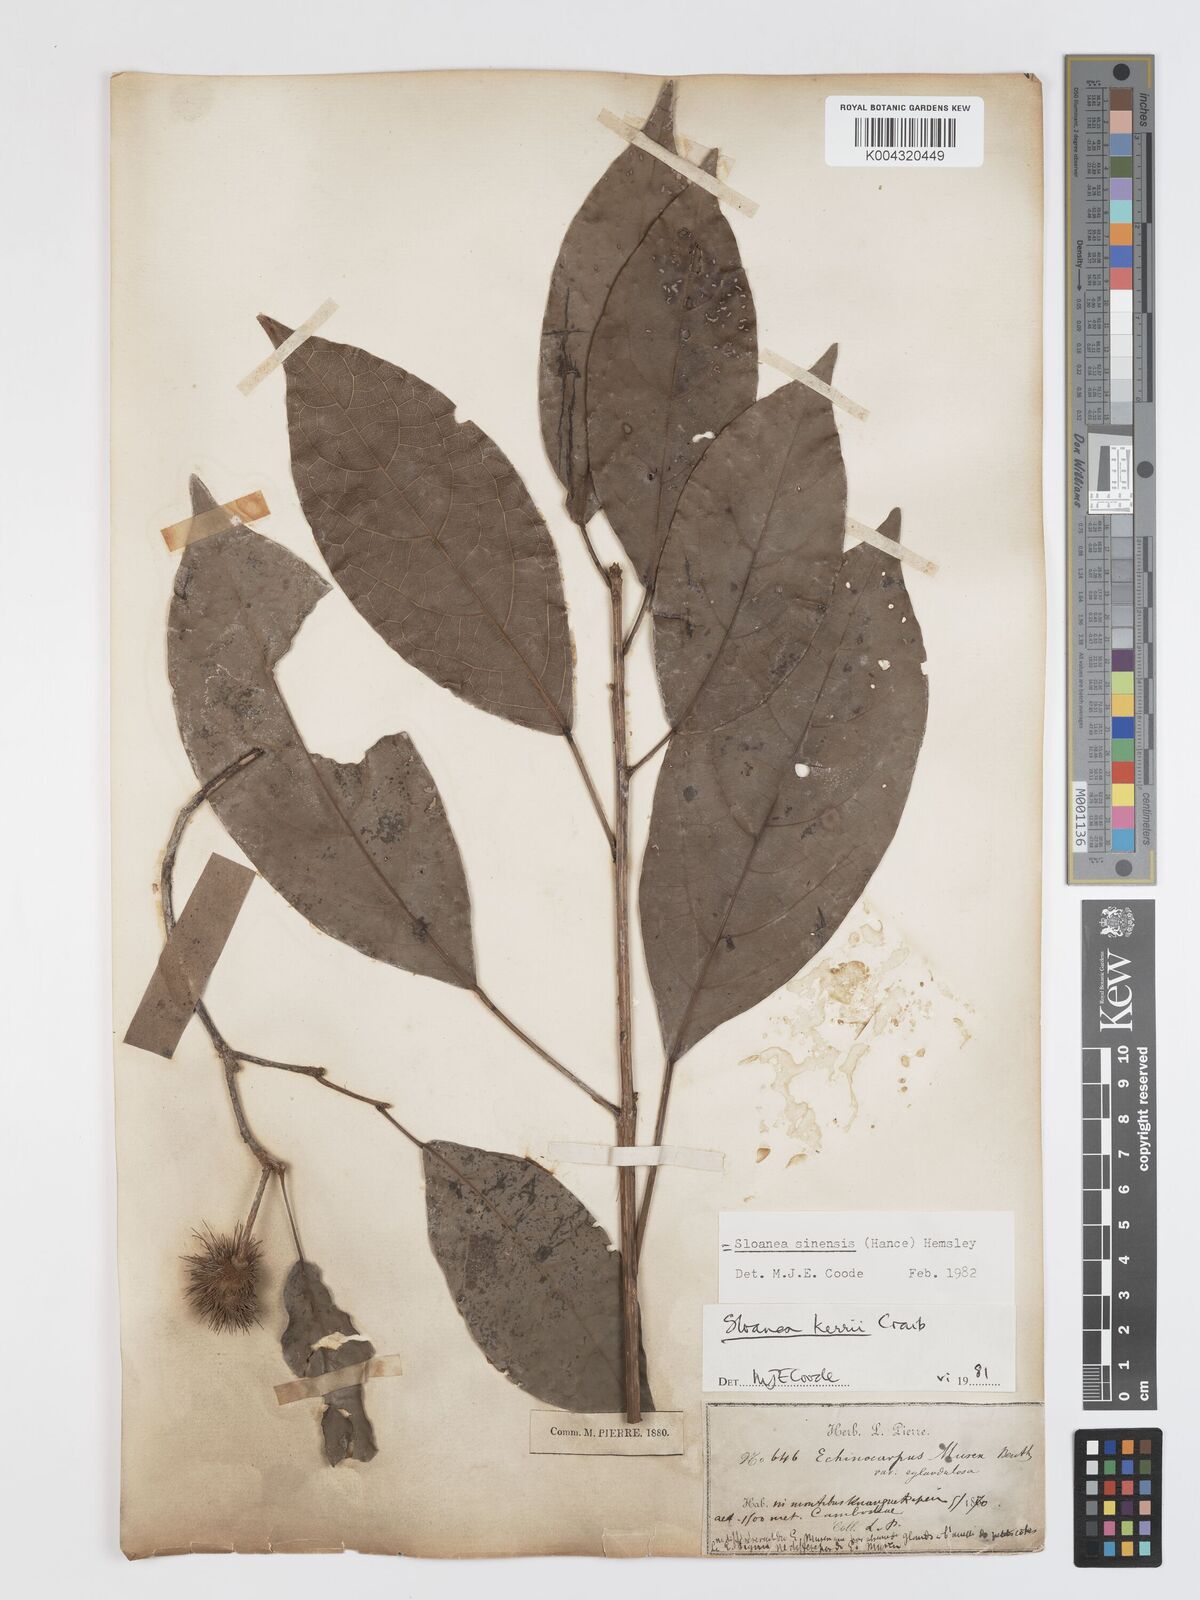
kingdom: Plantae
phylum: Tracheophyta
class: Magnoliopsida
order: Oxalidales
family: Elaeocarpaceae
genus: Sloanea
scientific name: Sloanea sinensis
